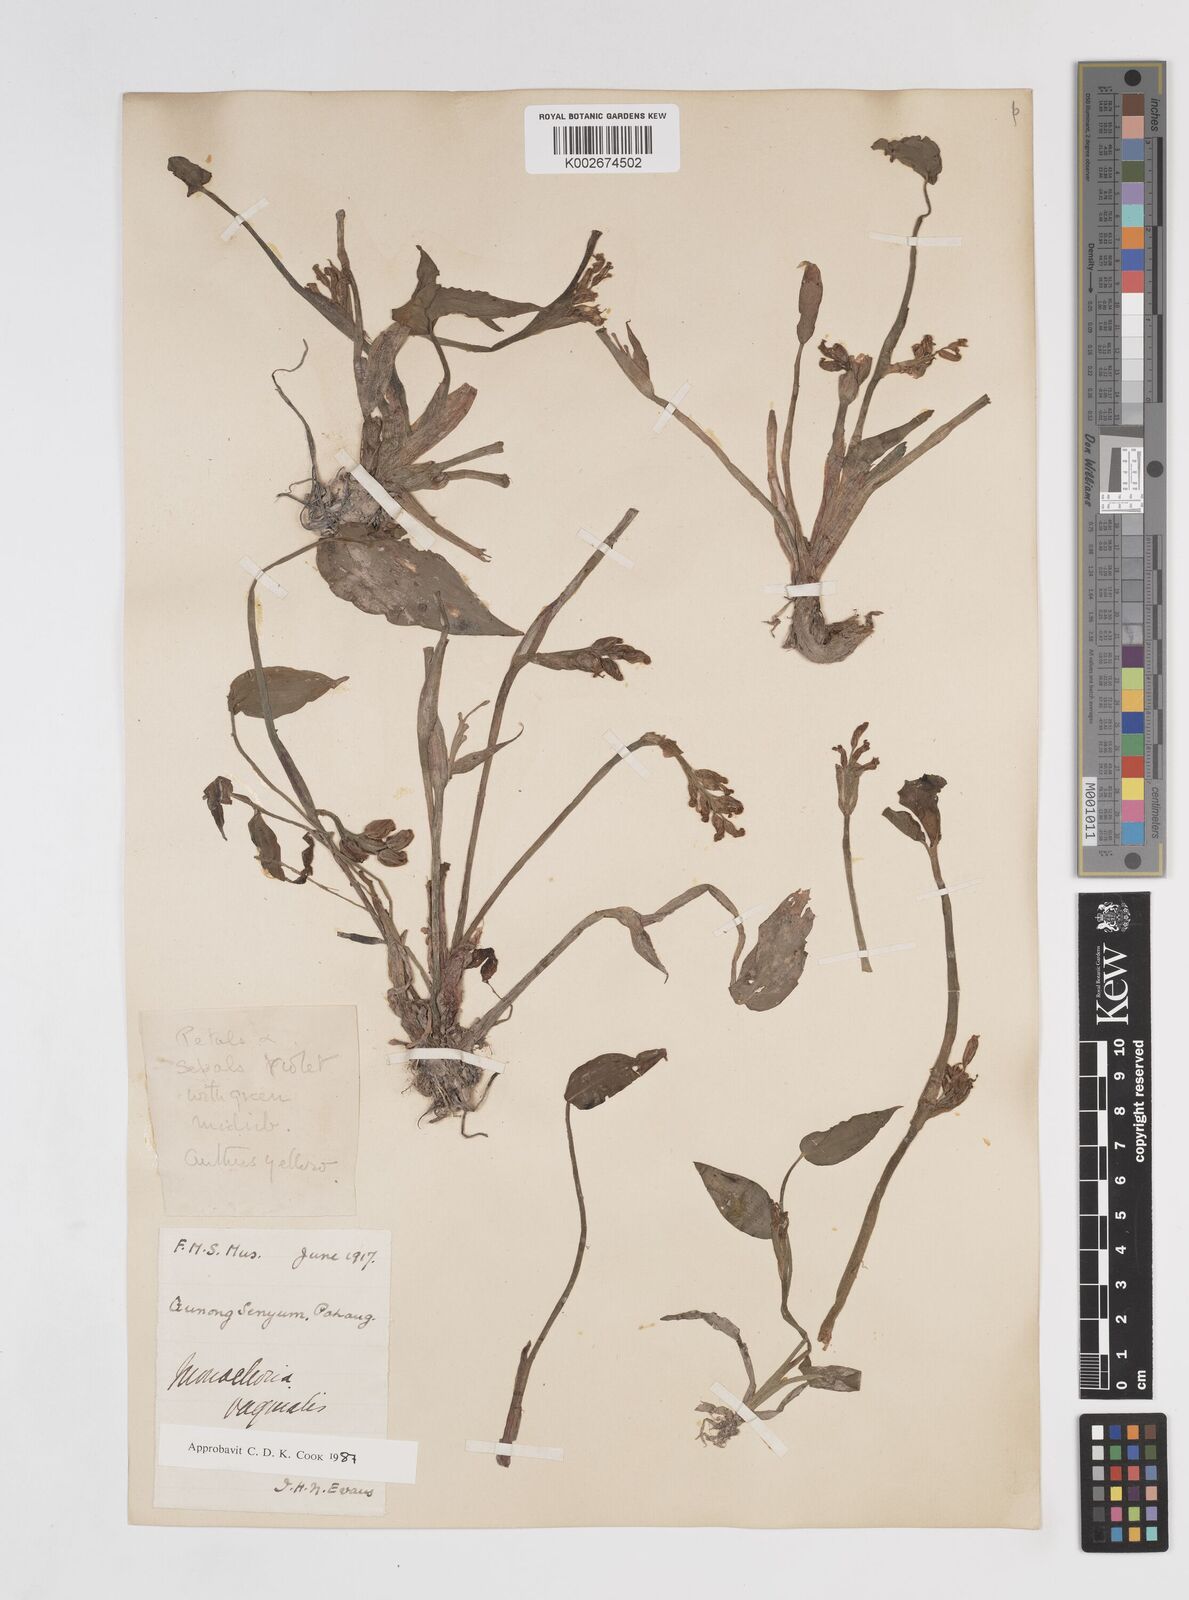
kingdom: Plantae
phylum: Tracheophyta
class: Liliopsida
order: Commelinales
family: Pontederiaceae
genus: Pontederia
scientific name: Pontederia vaginalis
